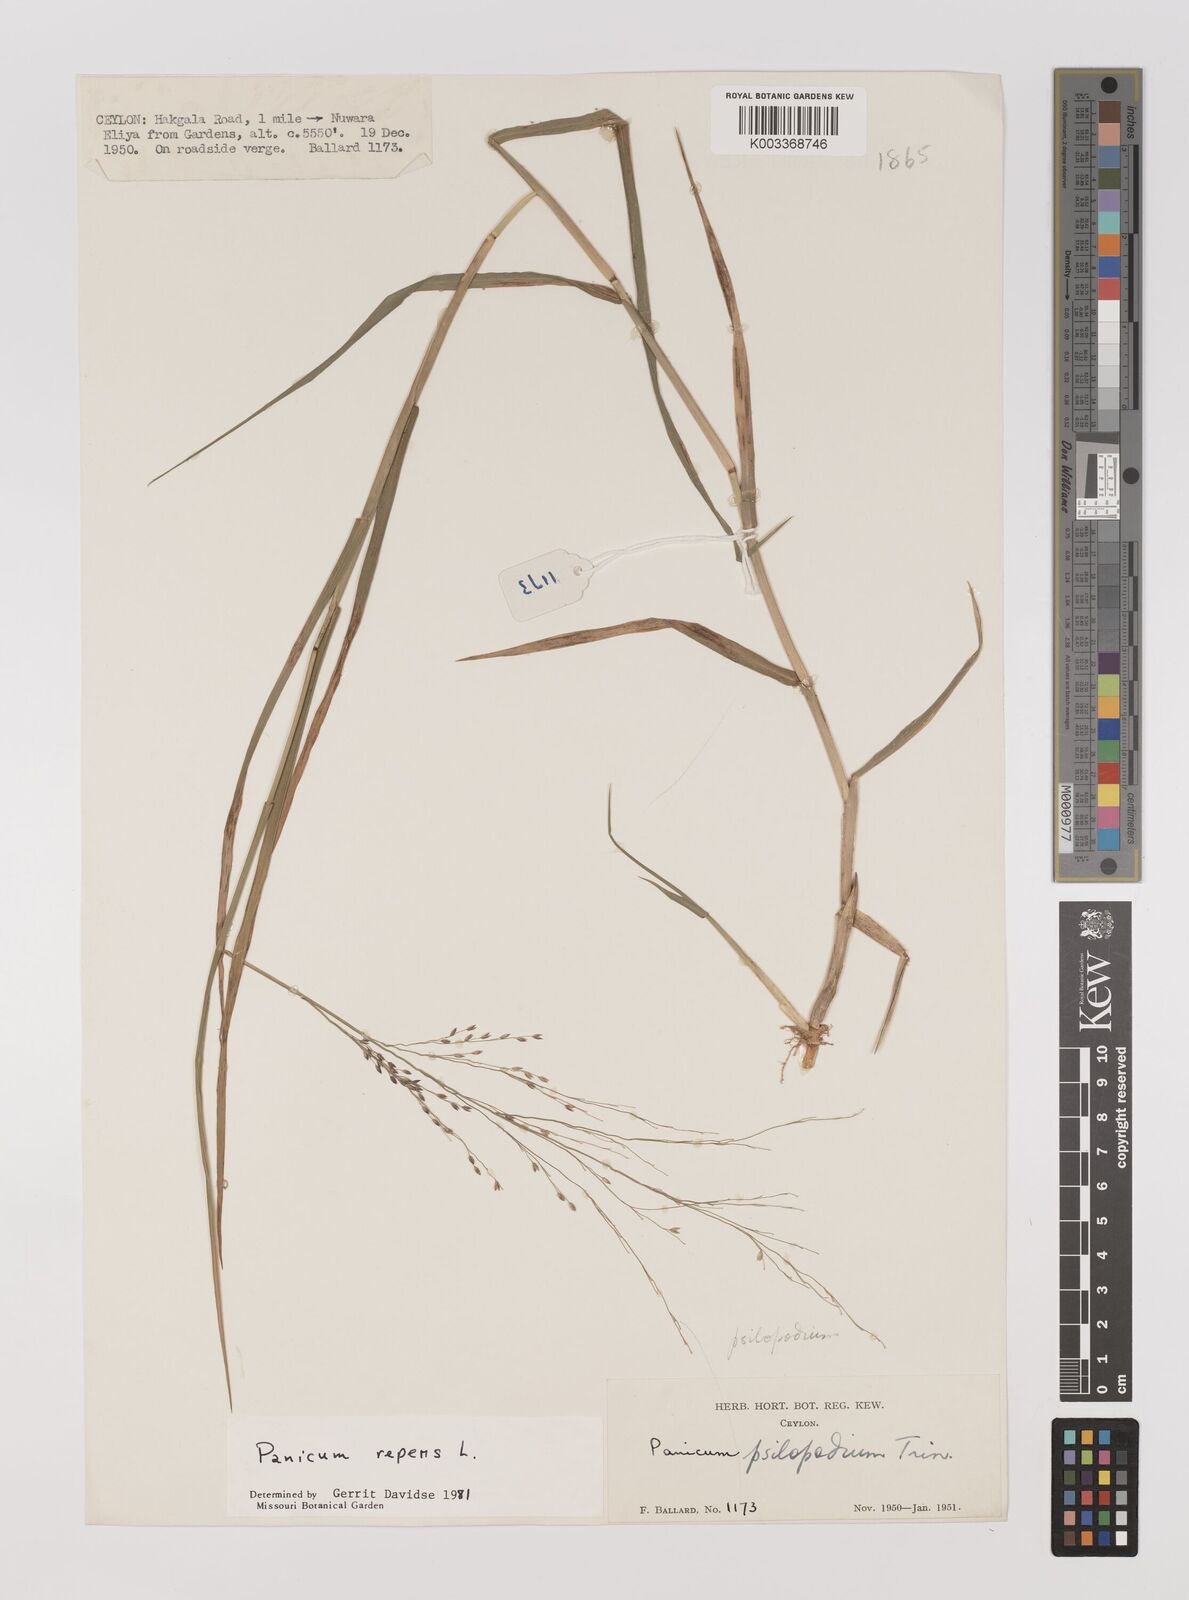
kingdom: Plantae
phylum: Tracheophyta
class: Liliopsida
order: Poales
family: Poaceae
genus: Panicum
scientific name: Panicum repens
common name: Torpedo grass
